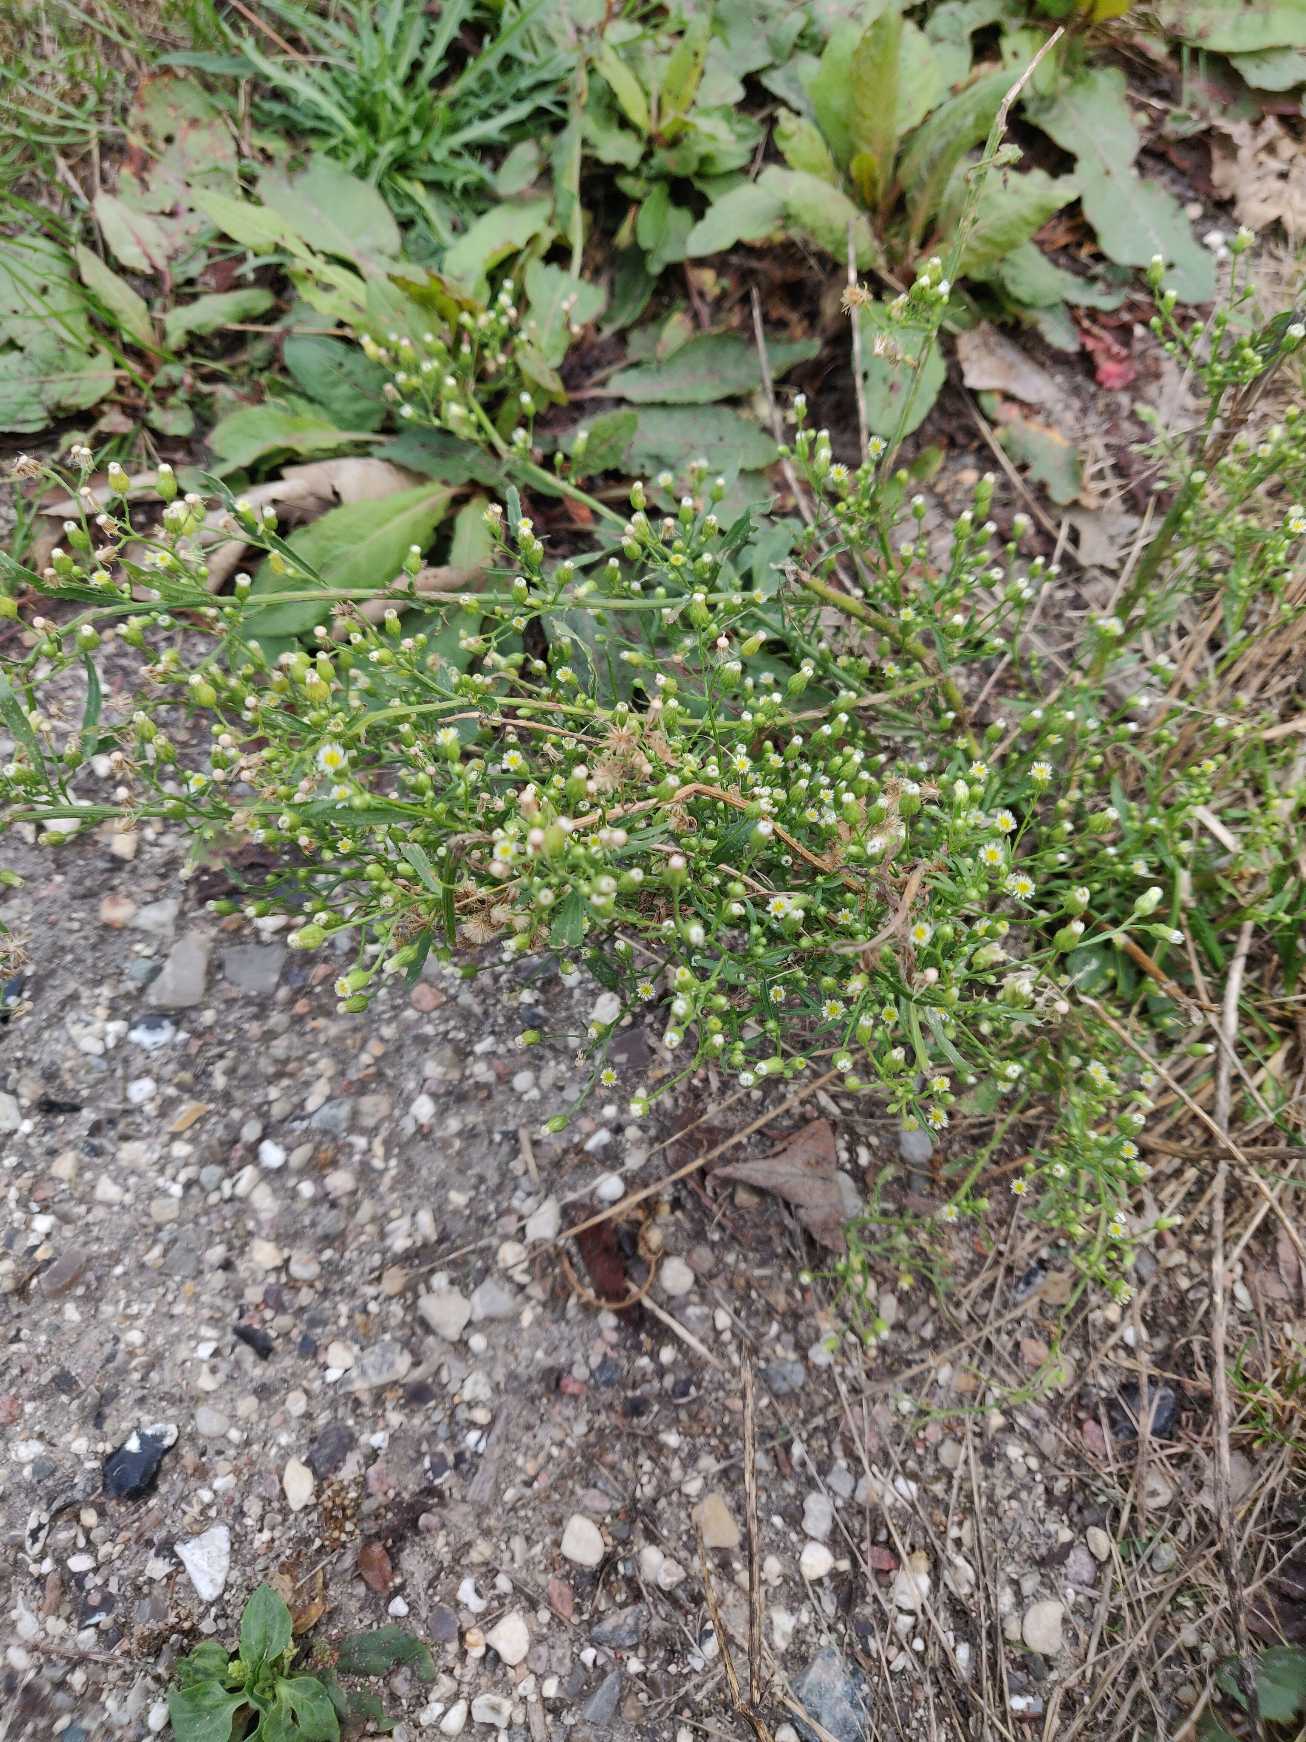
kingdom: Plantae
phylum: Tracheophyta
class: Magnoliopsida
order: Asterales
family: Asteraceae
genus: Erigeron
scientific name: Erigeron canadensis
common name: Kanadisk bakkestjerne
